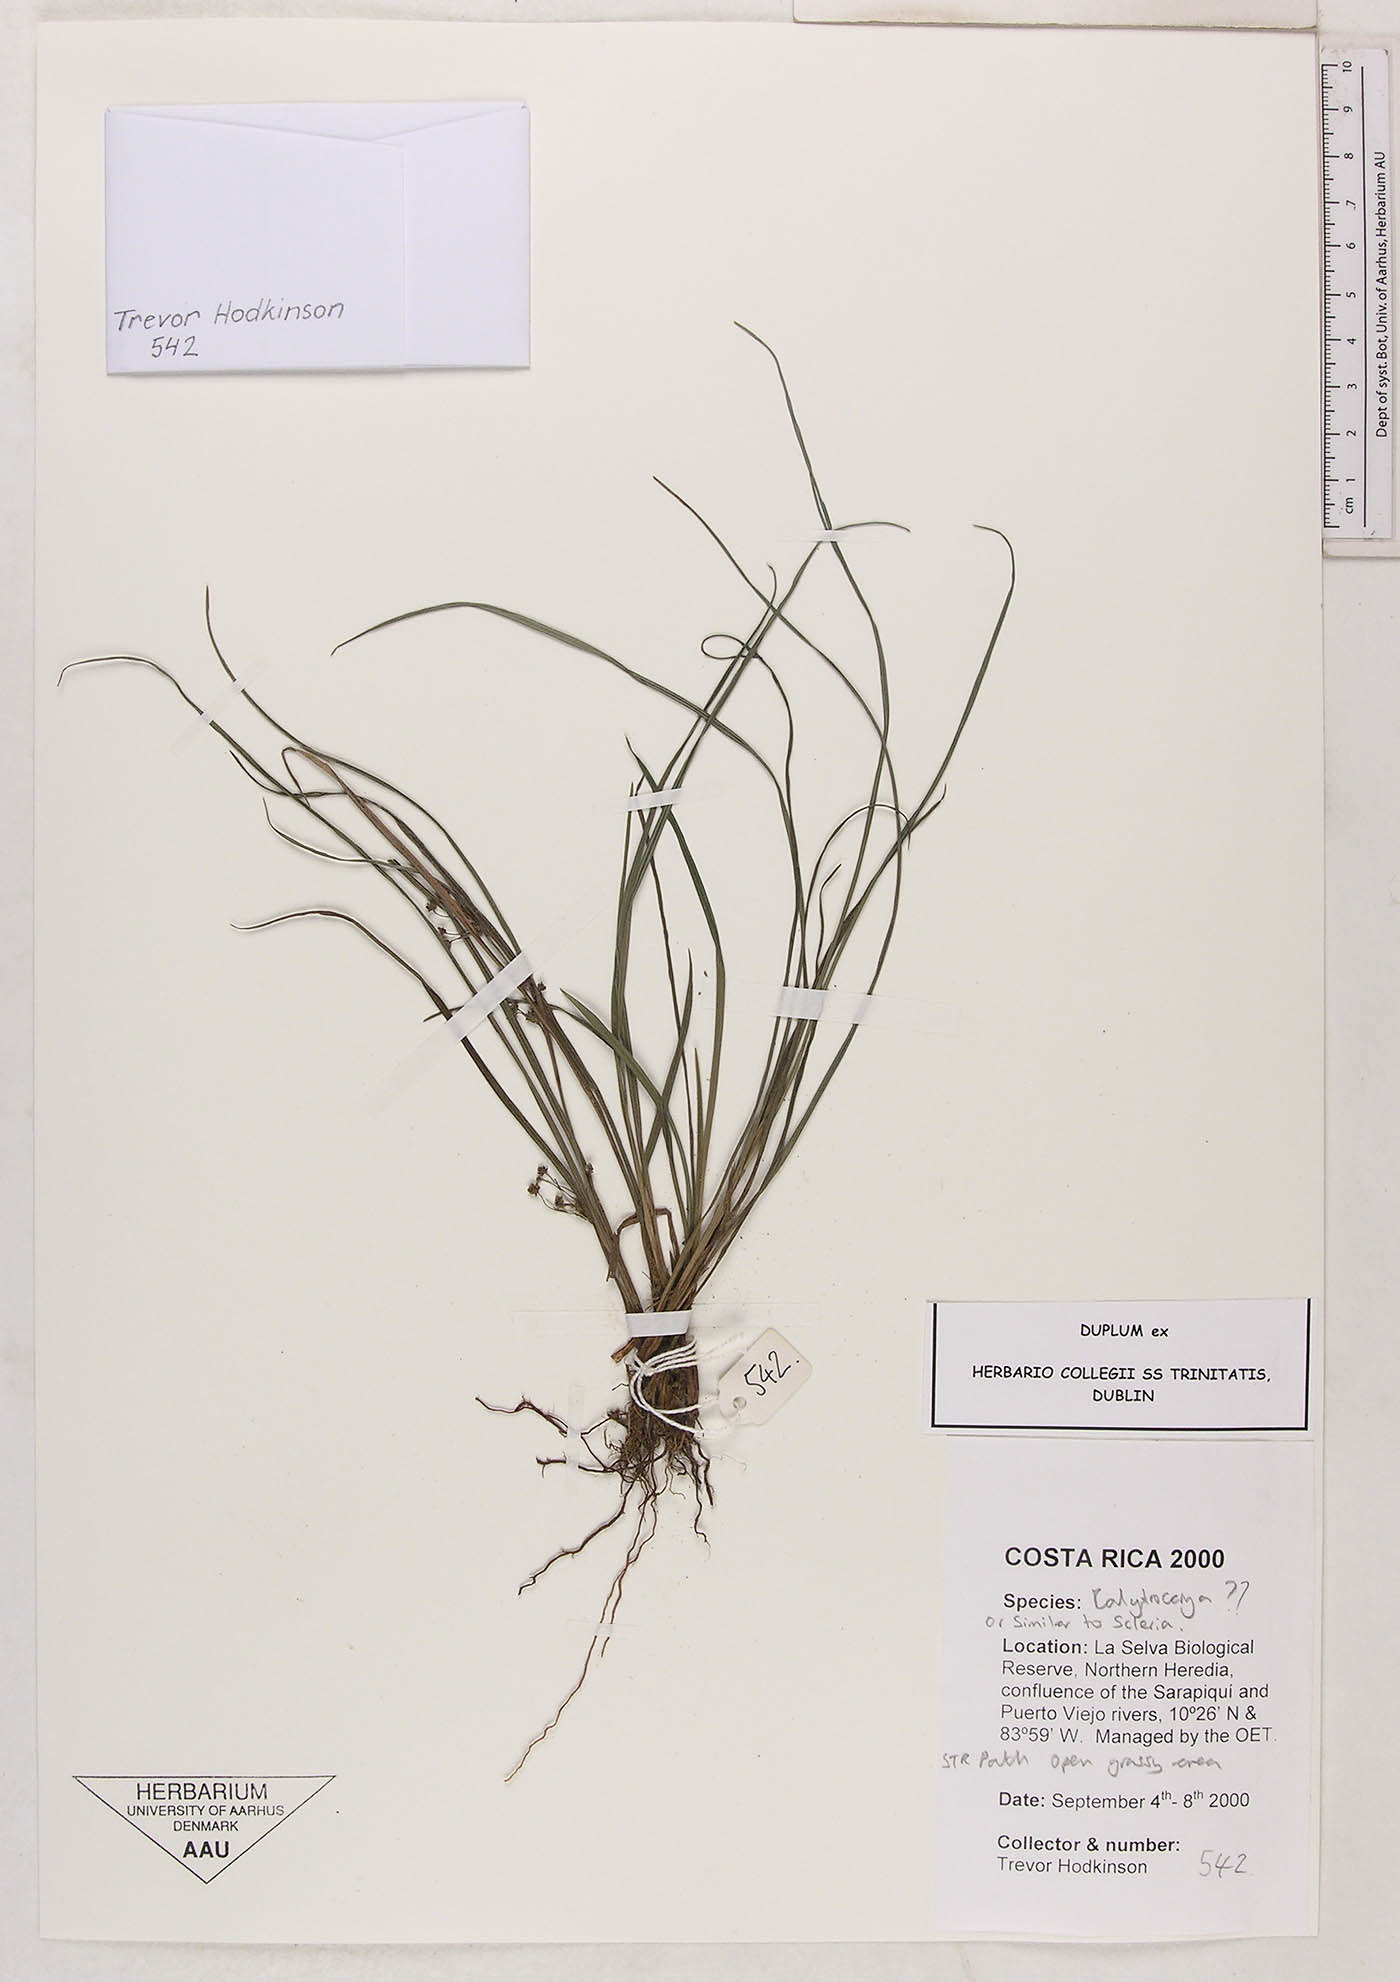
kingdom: Plantae
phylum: Tracheophyta
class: Liliopsida
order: Poales
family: Cyperaceae
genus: Calyptrocarya
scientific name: Calyptrocarya
